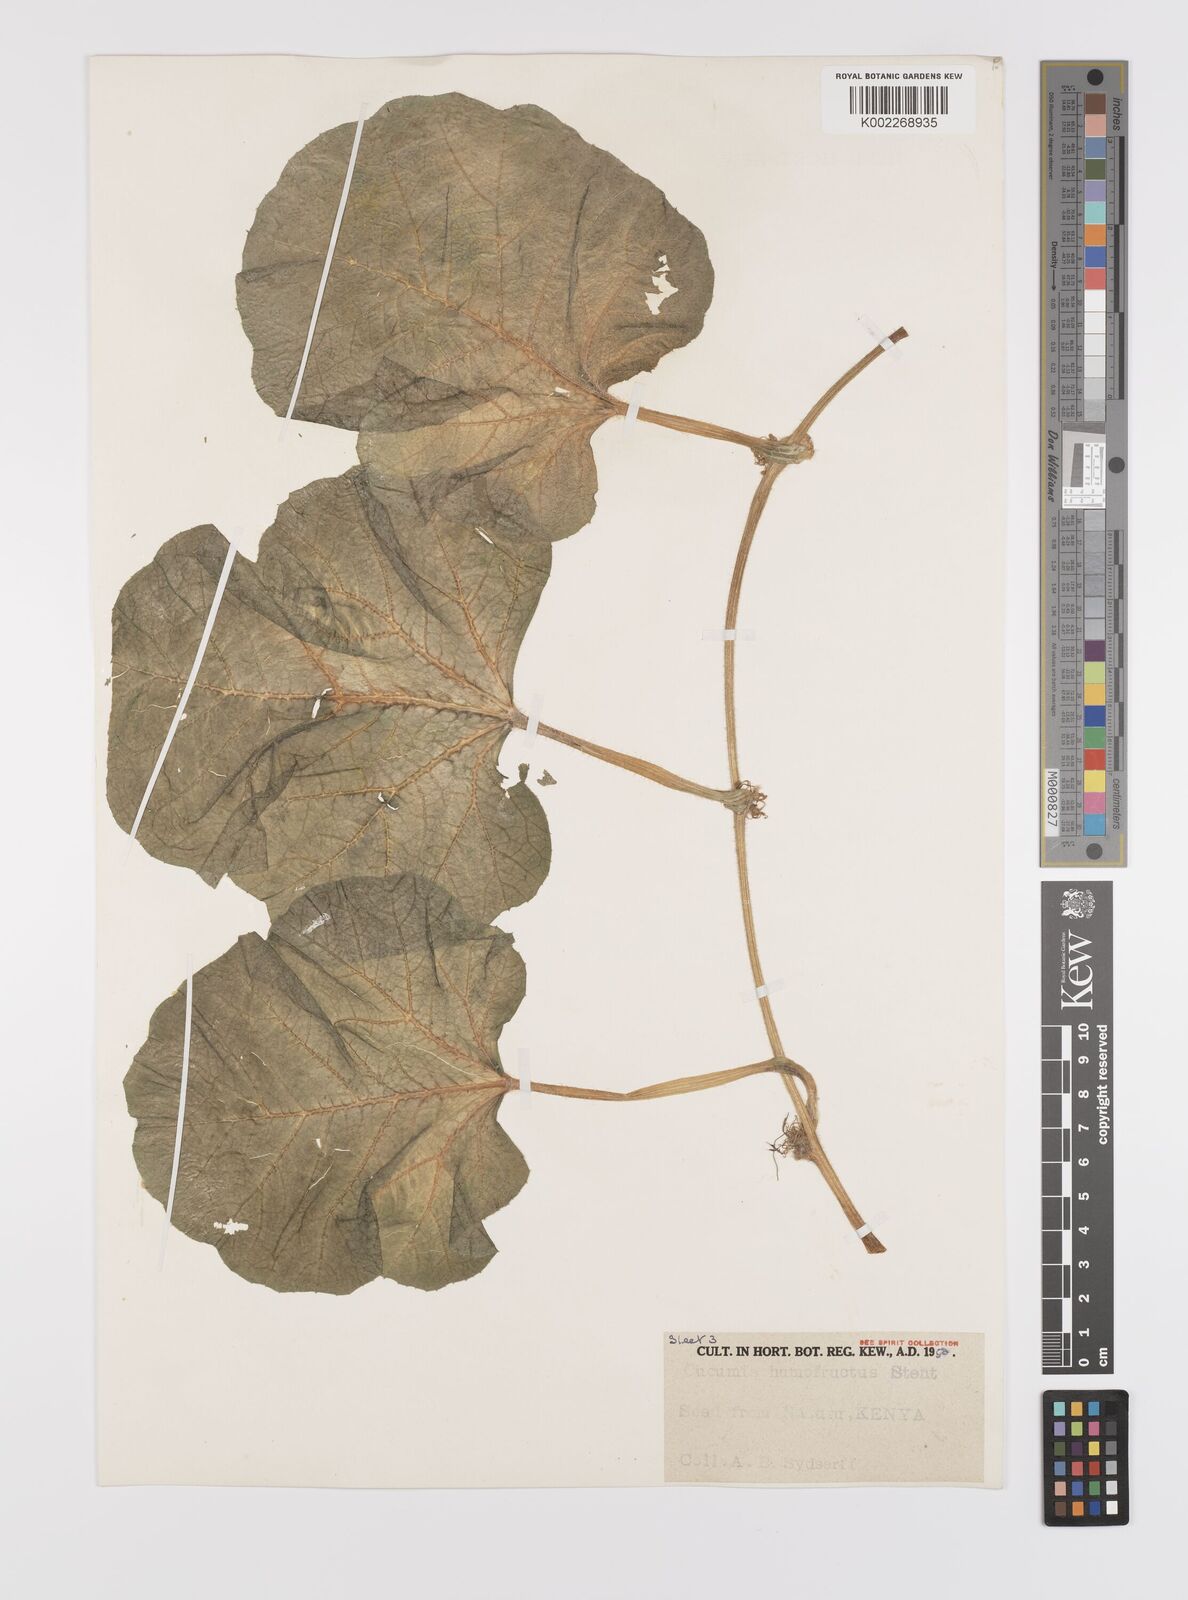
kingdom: Plantae
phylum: Tracheophyta
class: Magnoliopsida
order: Cucurbitales
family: Cucurbitaceae
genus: Cucumis
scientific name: Cucumis humofructus
